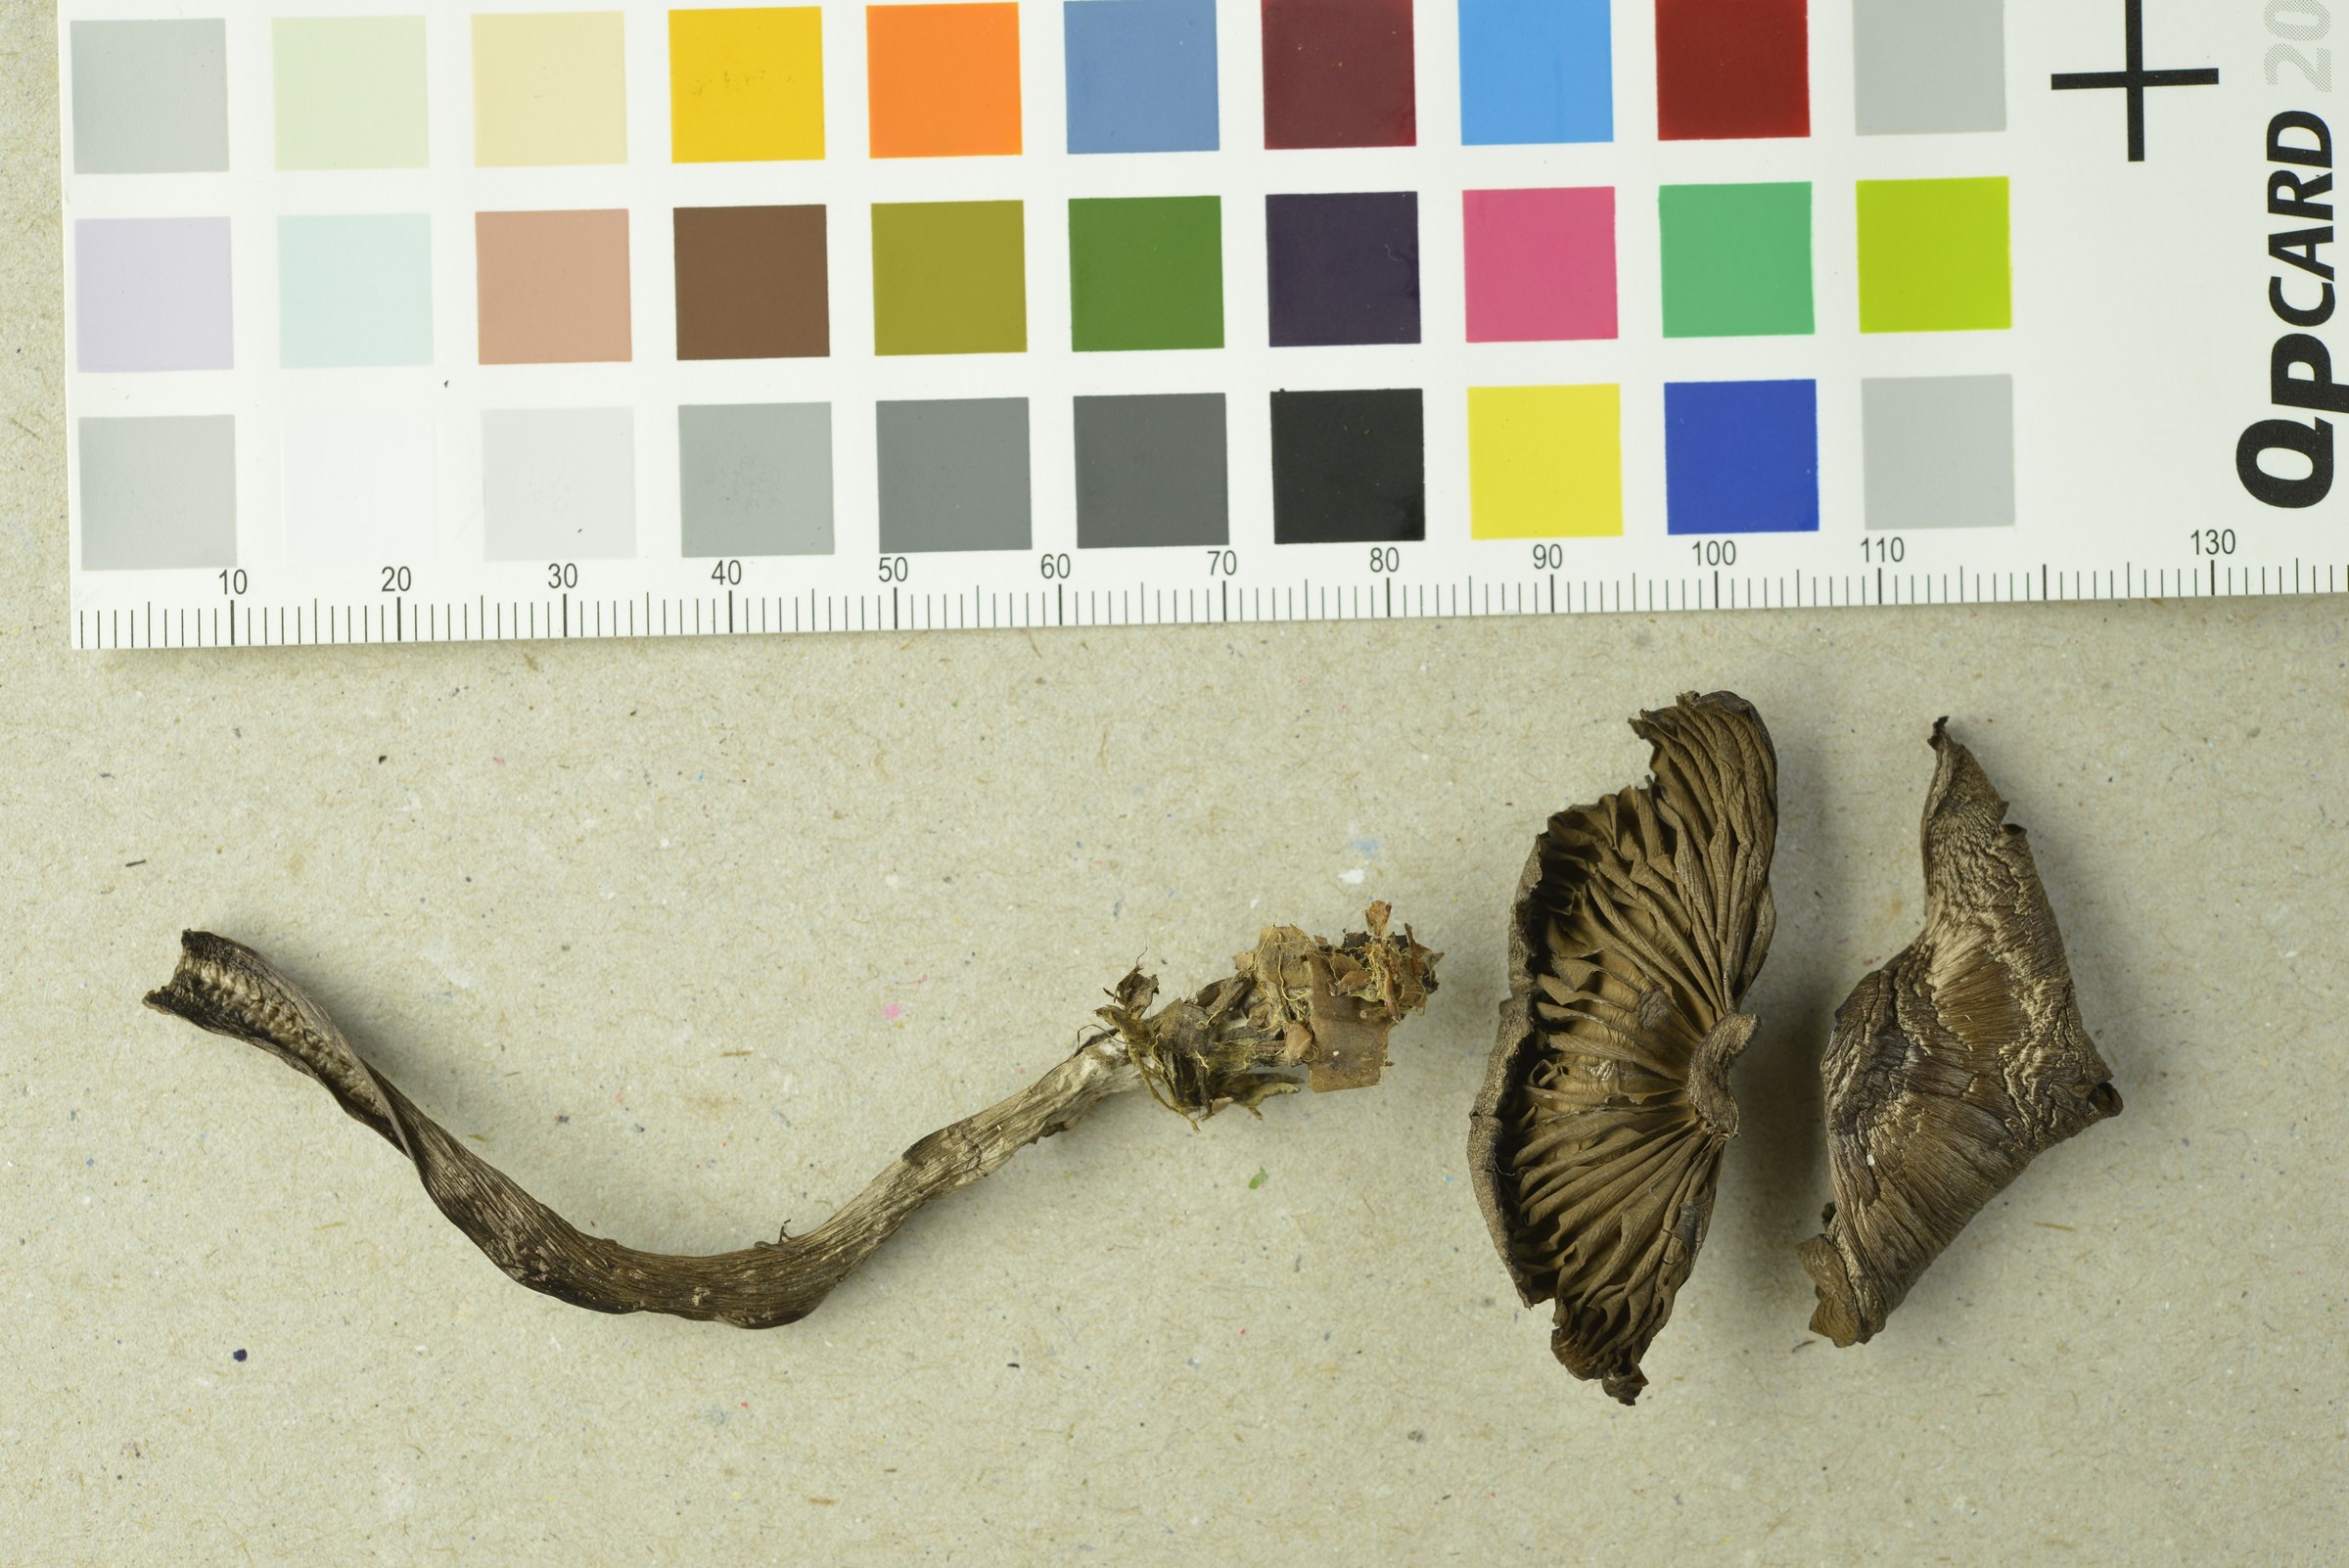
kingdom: Fungi
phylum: Basidiomycota
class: Agaricomycetes
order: Agaricales
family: Cortinariaceae
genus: Cortinarius
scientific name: Cortinarius glandicolor
